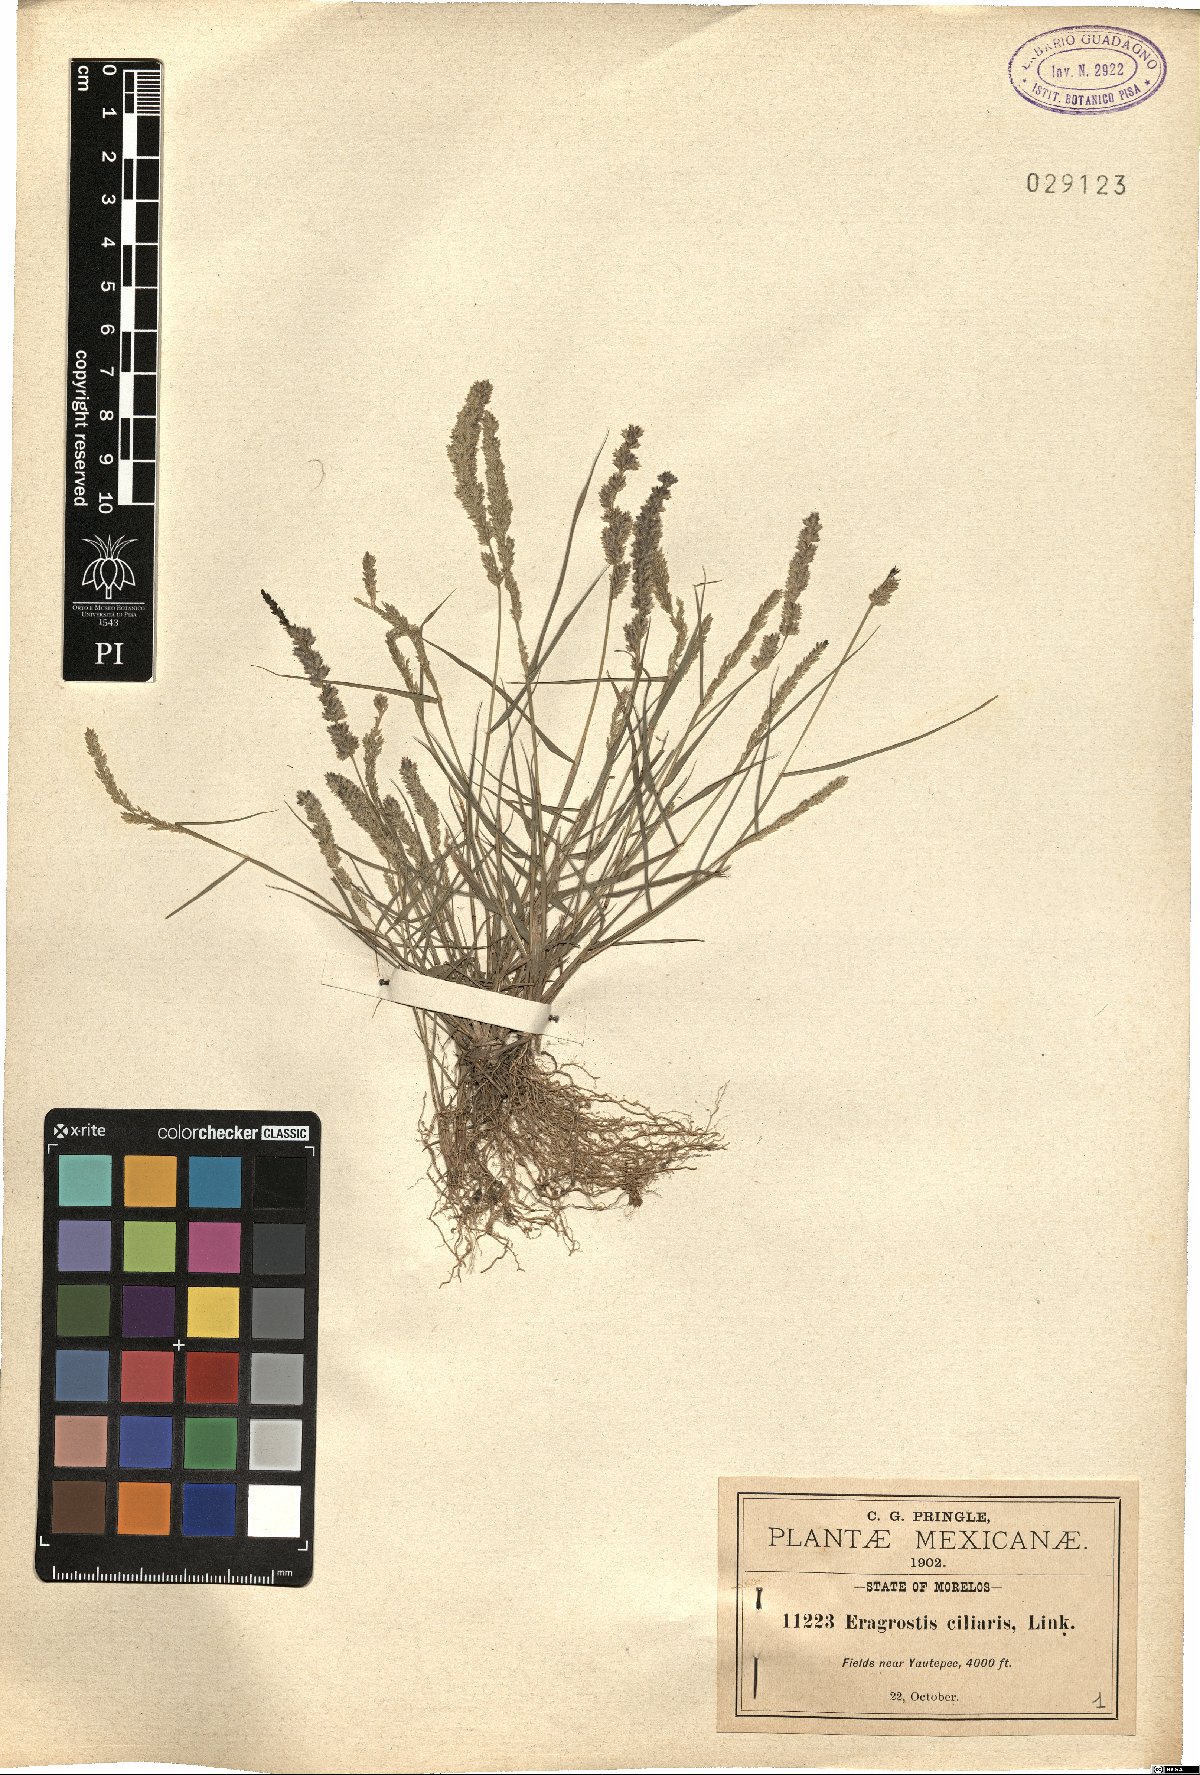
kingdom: Plantae
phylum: Tracheophyta
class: Liliopsida
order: Poales
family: Poaceae
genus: Eragrostis
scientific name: Eragrostis ciliaris
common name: Gophertail lovegrass
